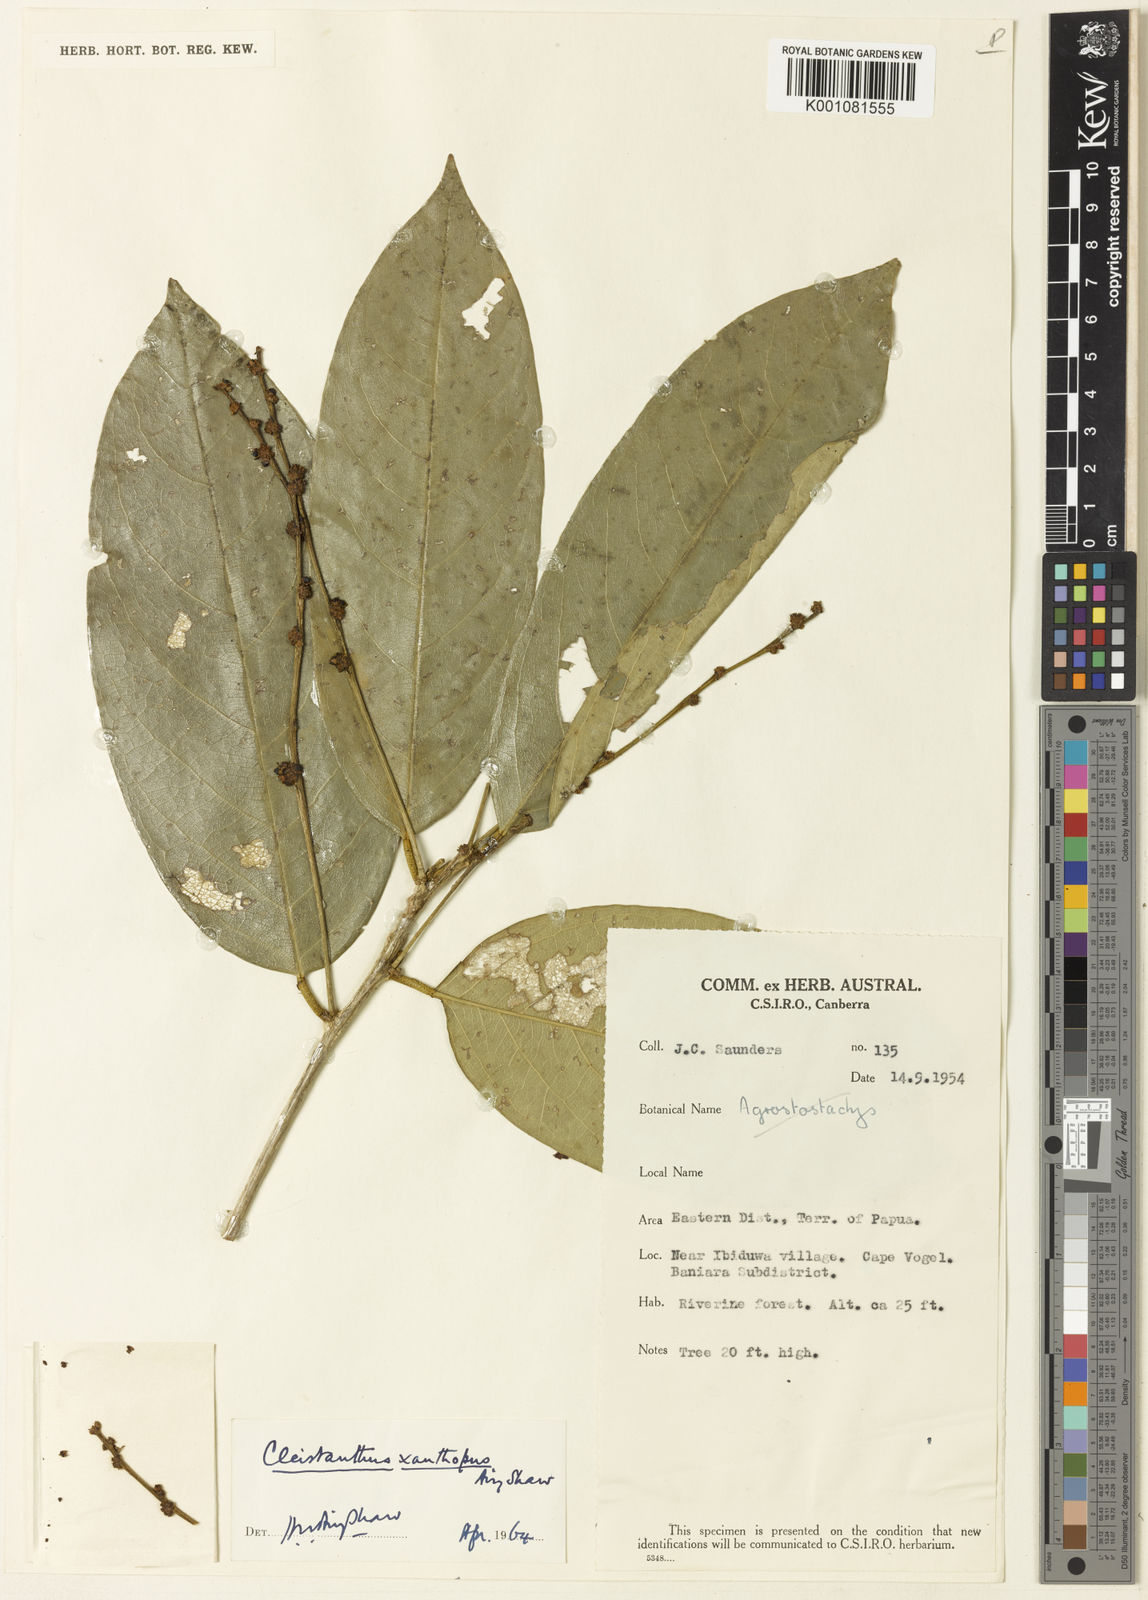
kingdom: Plantae
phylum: Tracheophyta
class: Magnoliopsida
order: Malpighiales
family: Phyllanthaceae
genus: Cleistanthus
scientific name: Cleistanthus xanthopus
